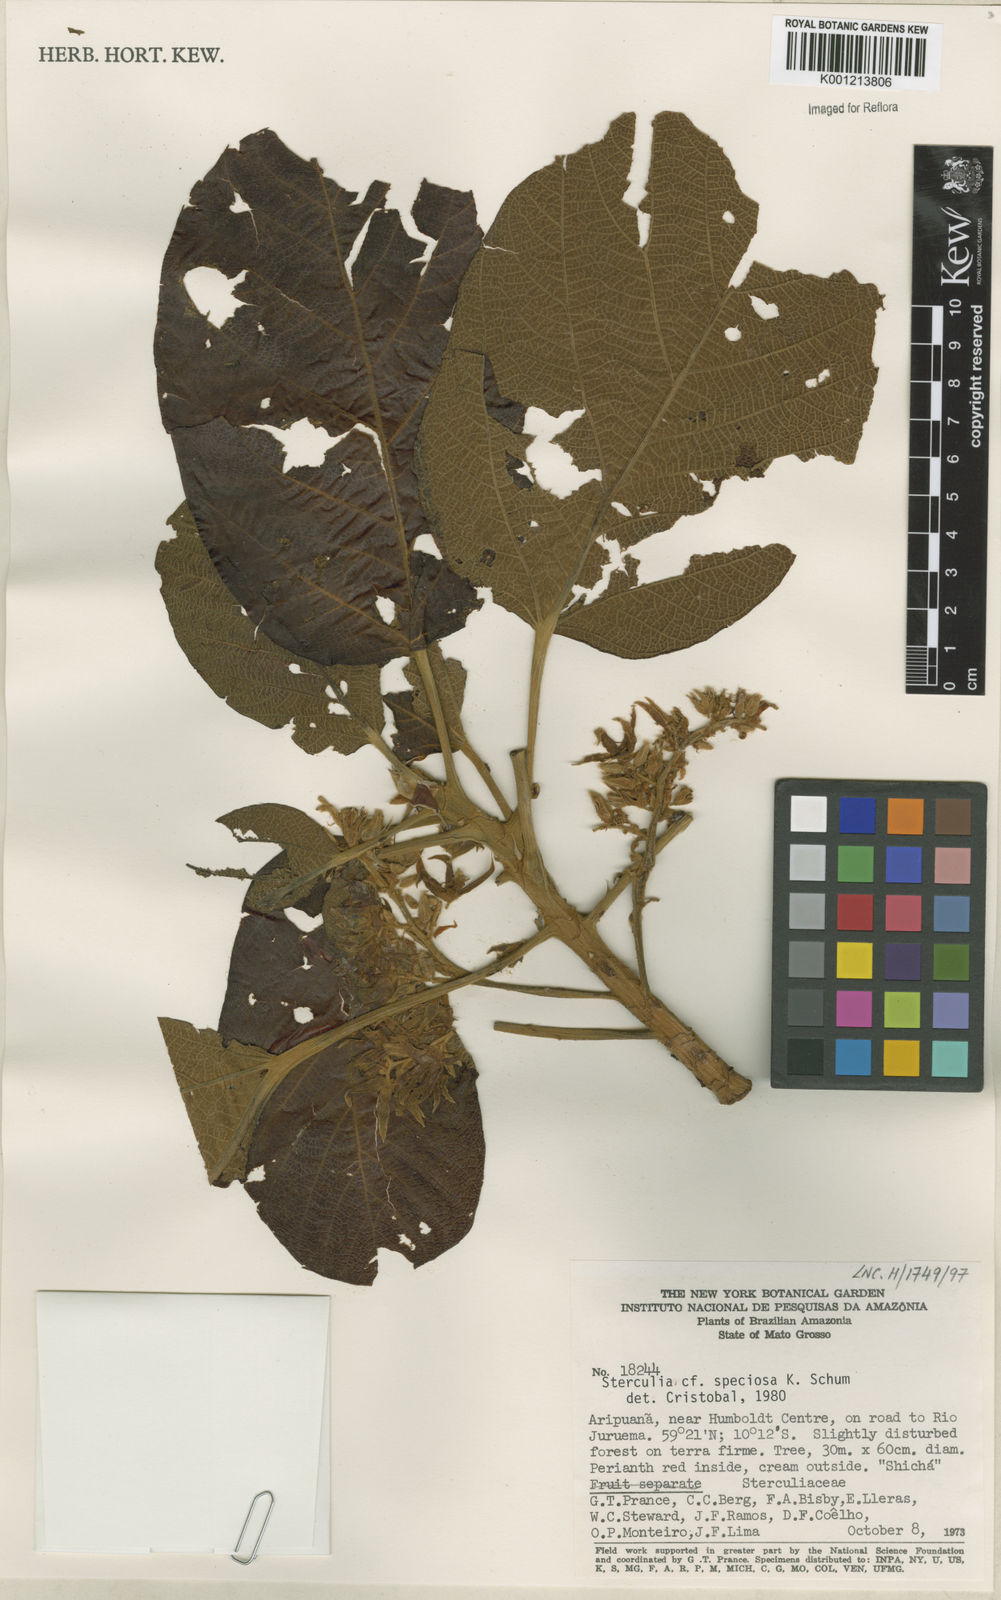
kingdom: Plantae
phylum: Tracheophyta
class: Magnoliopsida
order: Malvales
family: Malvaceae
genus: Sterculia
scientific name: Sterculia speciosa
